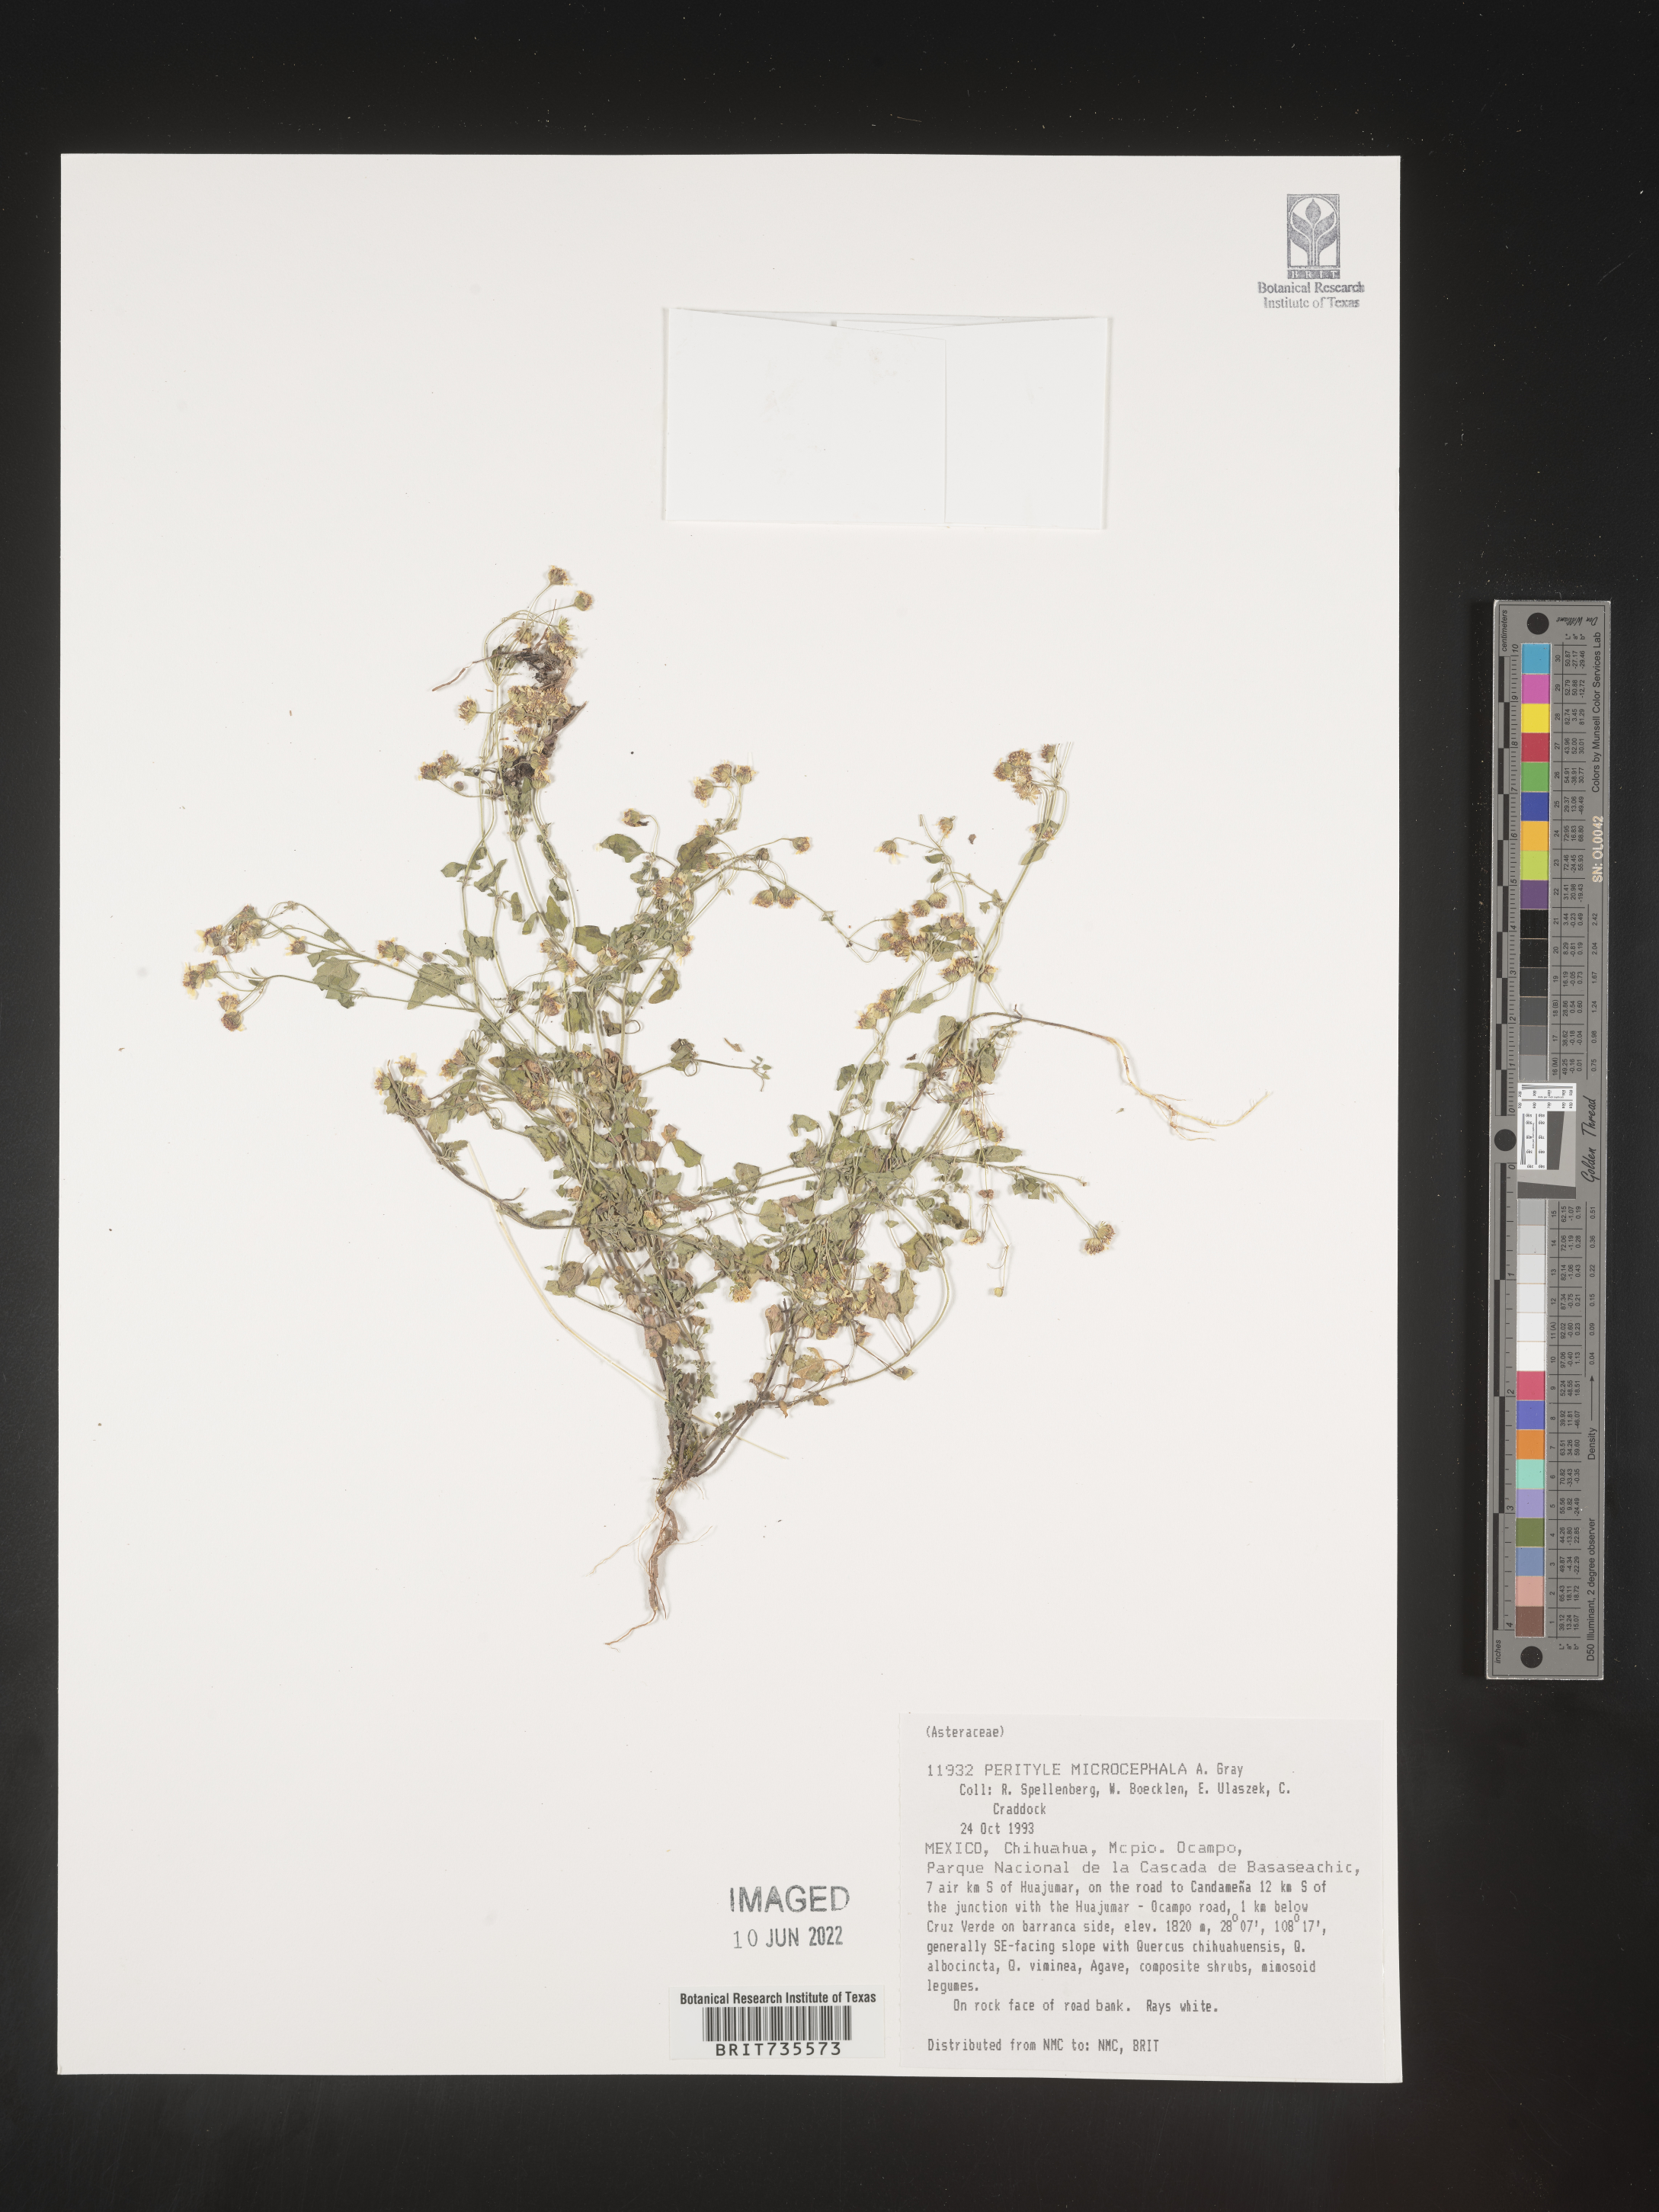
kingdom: Plantae
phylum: Tracheophyta
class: Magnoliopsida
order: Asterales
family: Asteraceae
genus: Perityle
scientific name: Perityle
